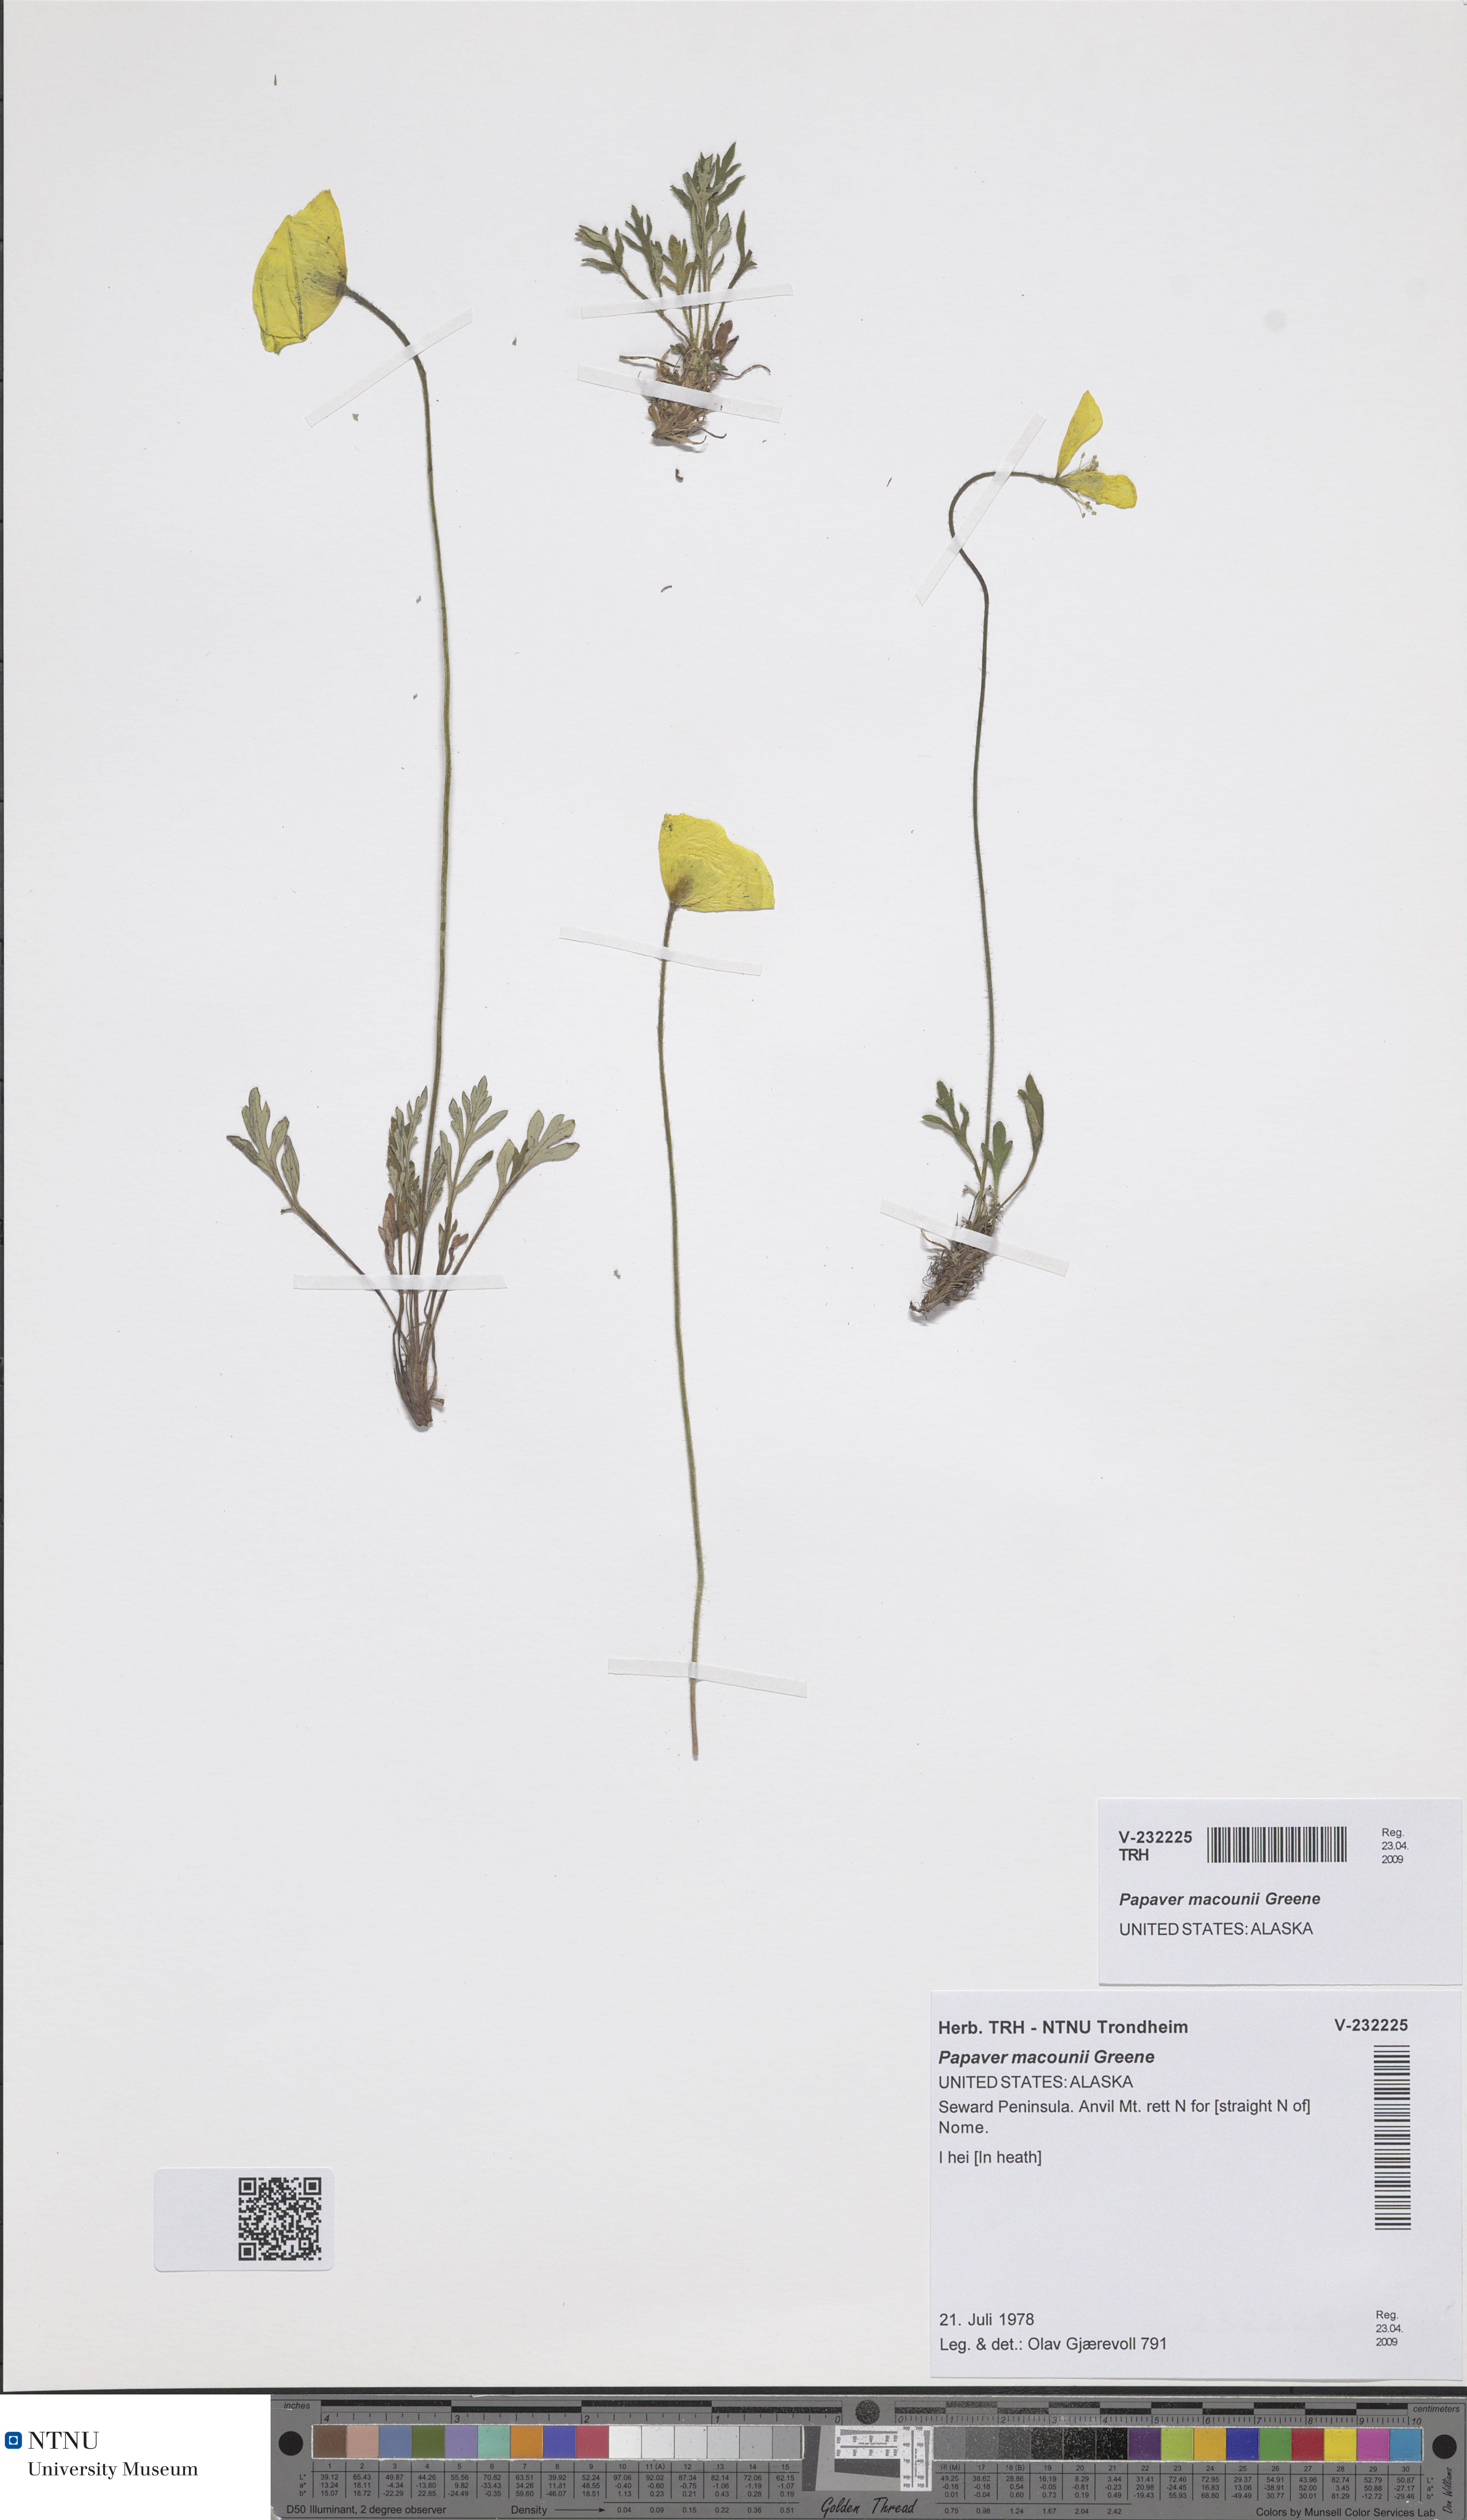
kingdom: Plantae
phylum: Tracheophyta
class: Magnoliopsida
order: Ranunculales
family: Papaveraceae
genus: Papaver
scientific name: Papaver macounii
